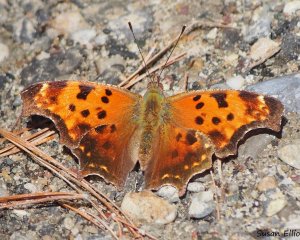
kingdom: Animalia
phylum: Arthropoda
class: Insecta
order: Lepidoptera
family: Nymphalidae
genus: Polygonia
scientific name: Polygonia comma
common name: Eastern Comma
